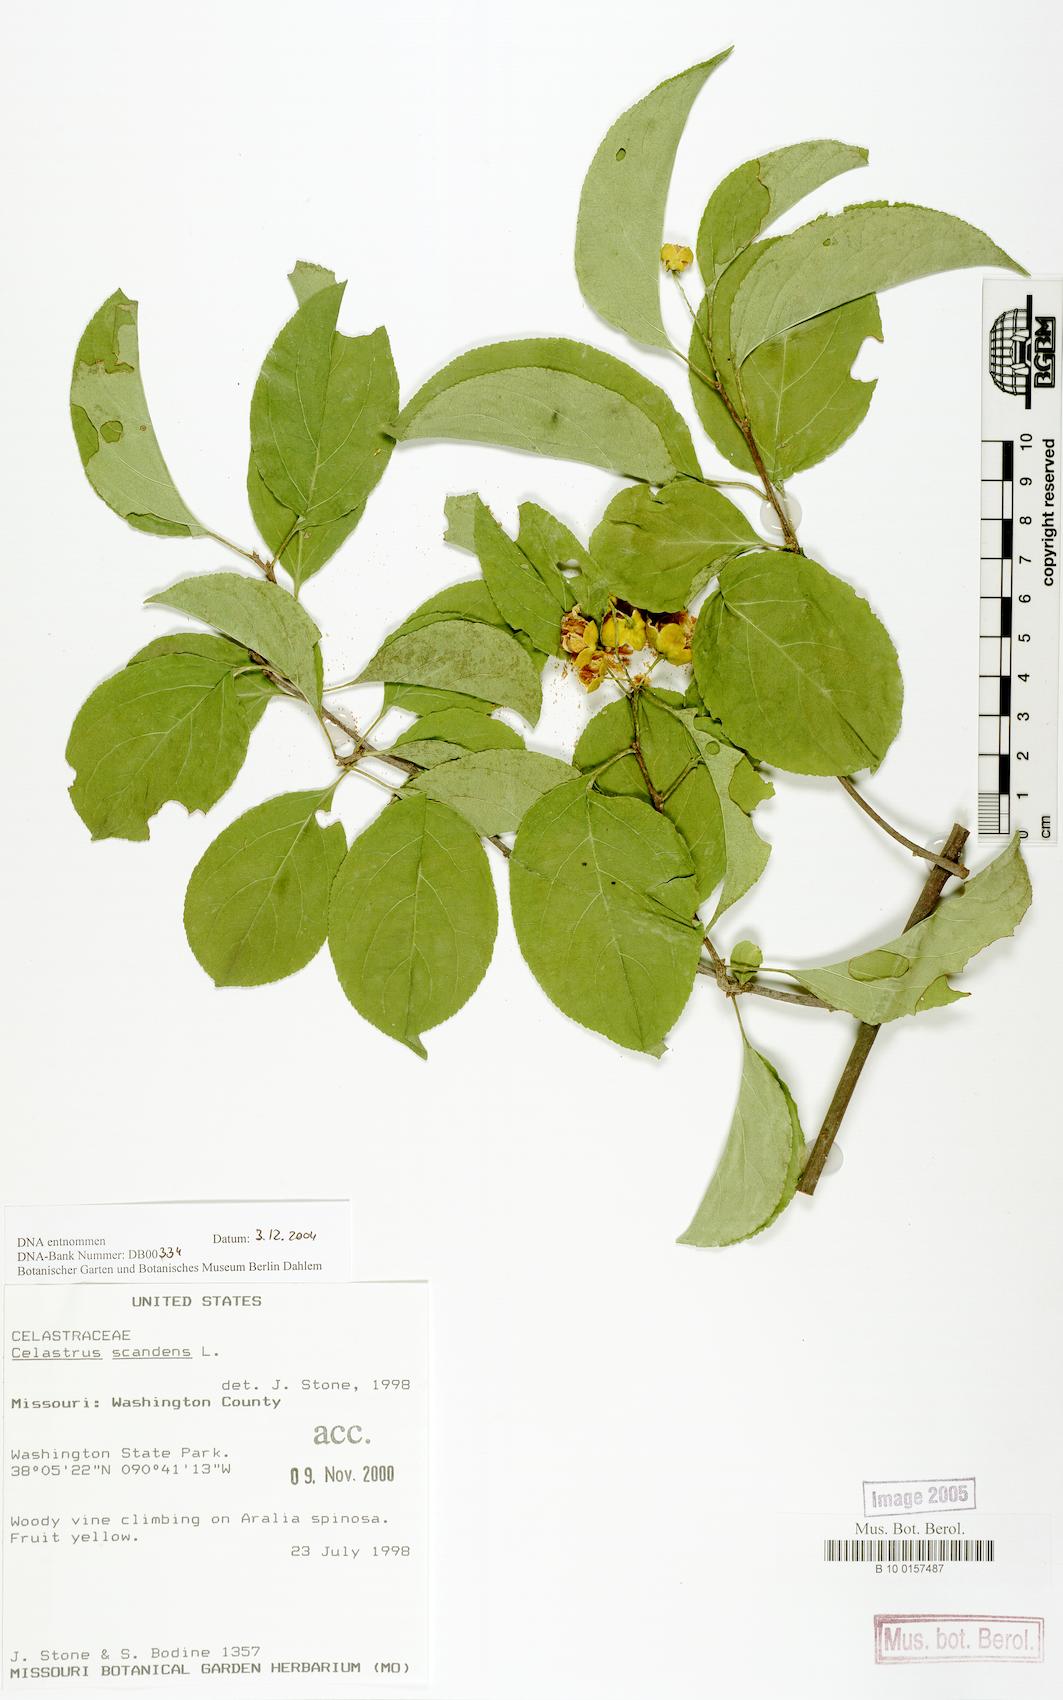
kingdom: Plantae
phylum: Tracheophyta
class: Magnoliopsida
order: Celastrales
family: Celastraceae
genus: Celastrus
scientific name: Celastrus scandens
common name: American bittersweet
